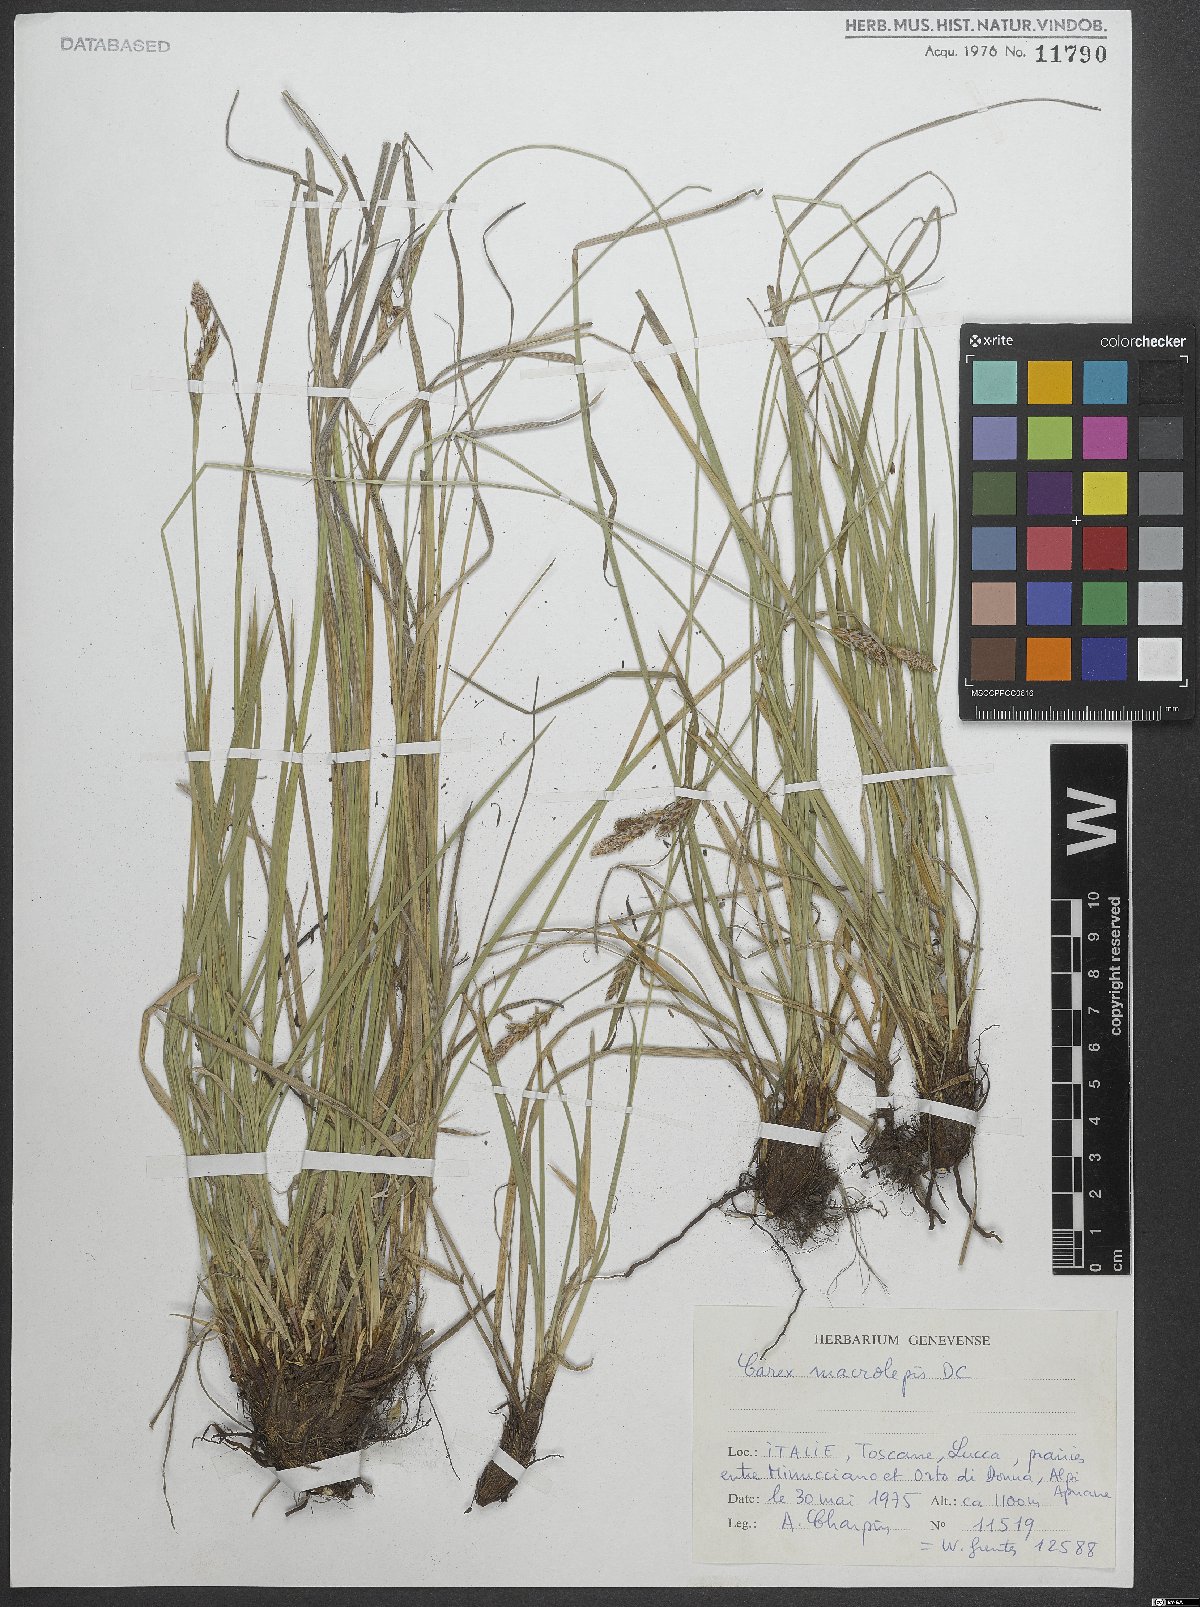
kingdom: Plantae
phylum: Tracheophyta
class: Liliopsida
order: Poales
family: Cyperaceae
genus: Carex
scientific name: Carex macrolepis
